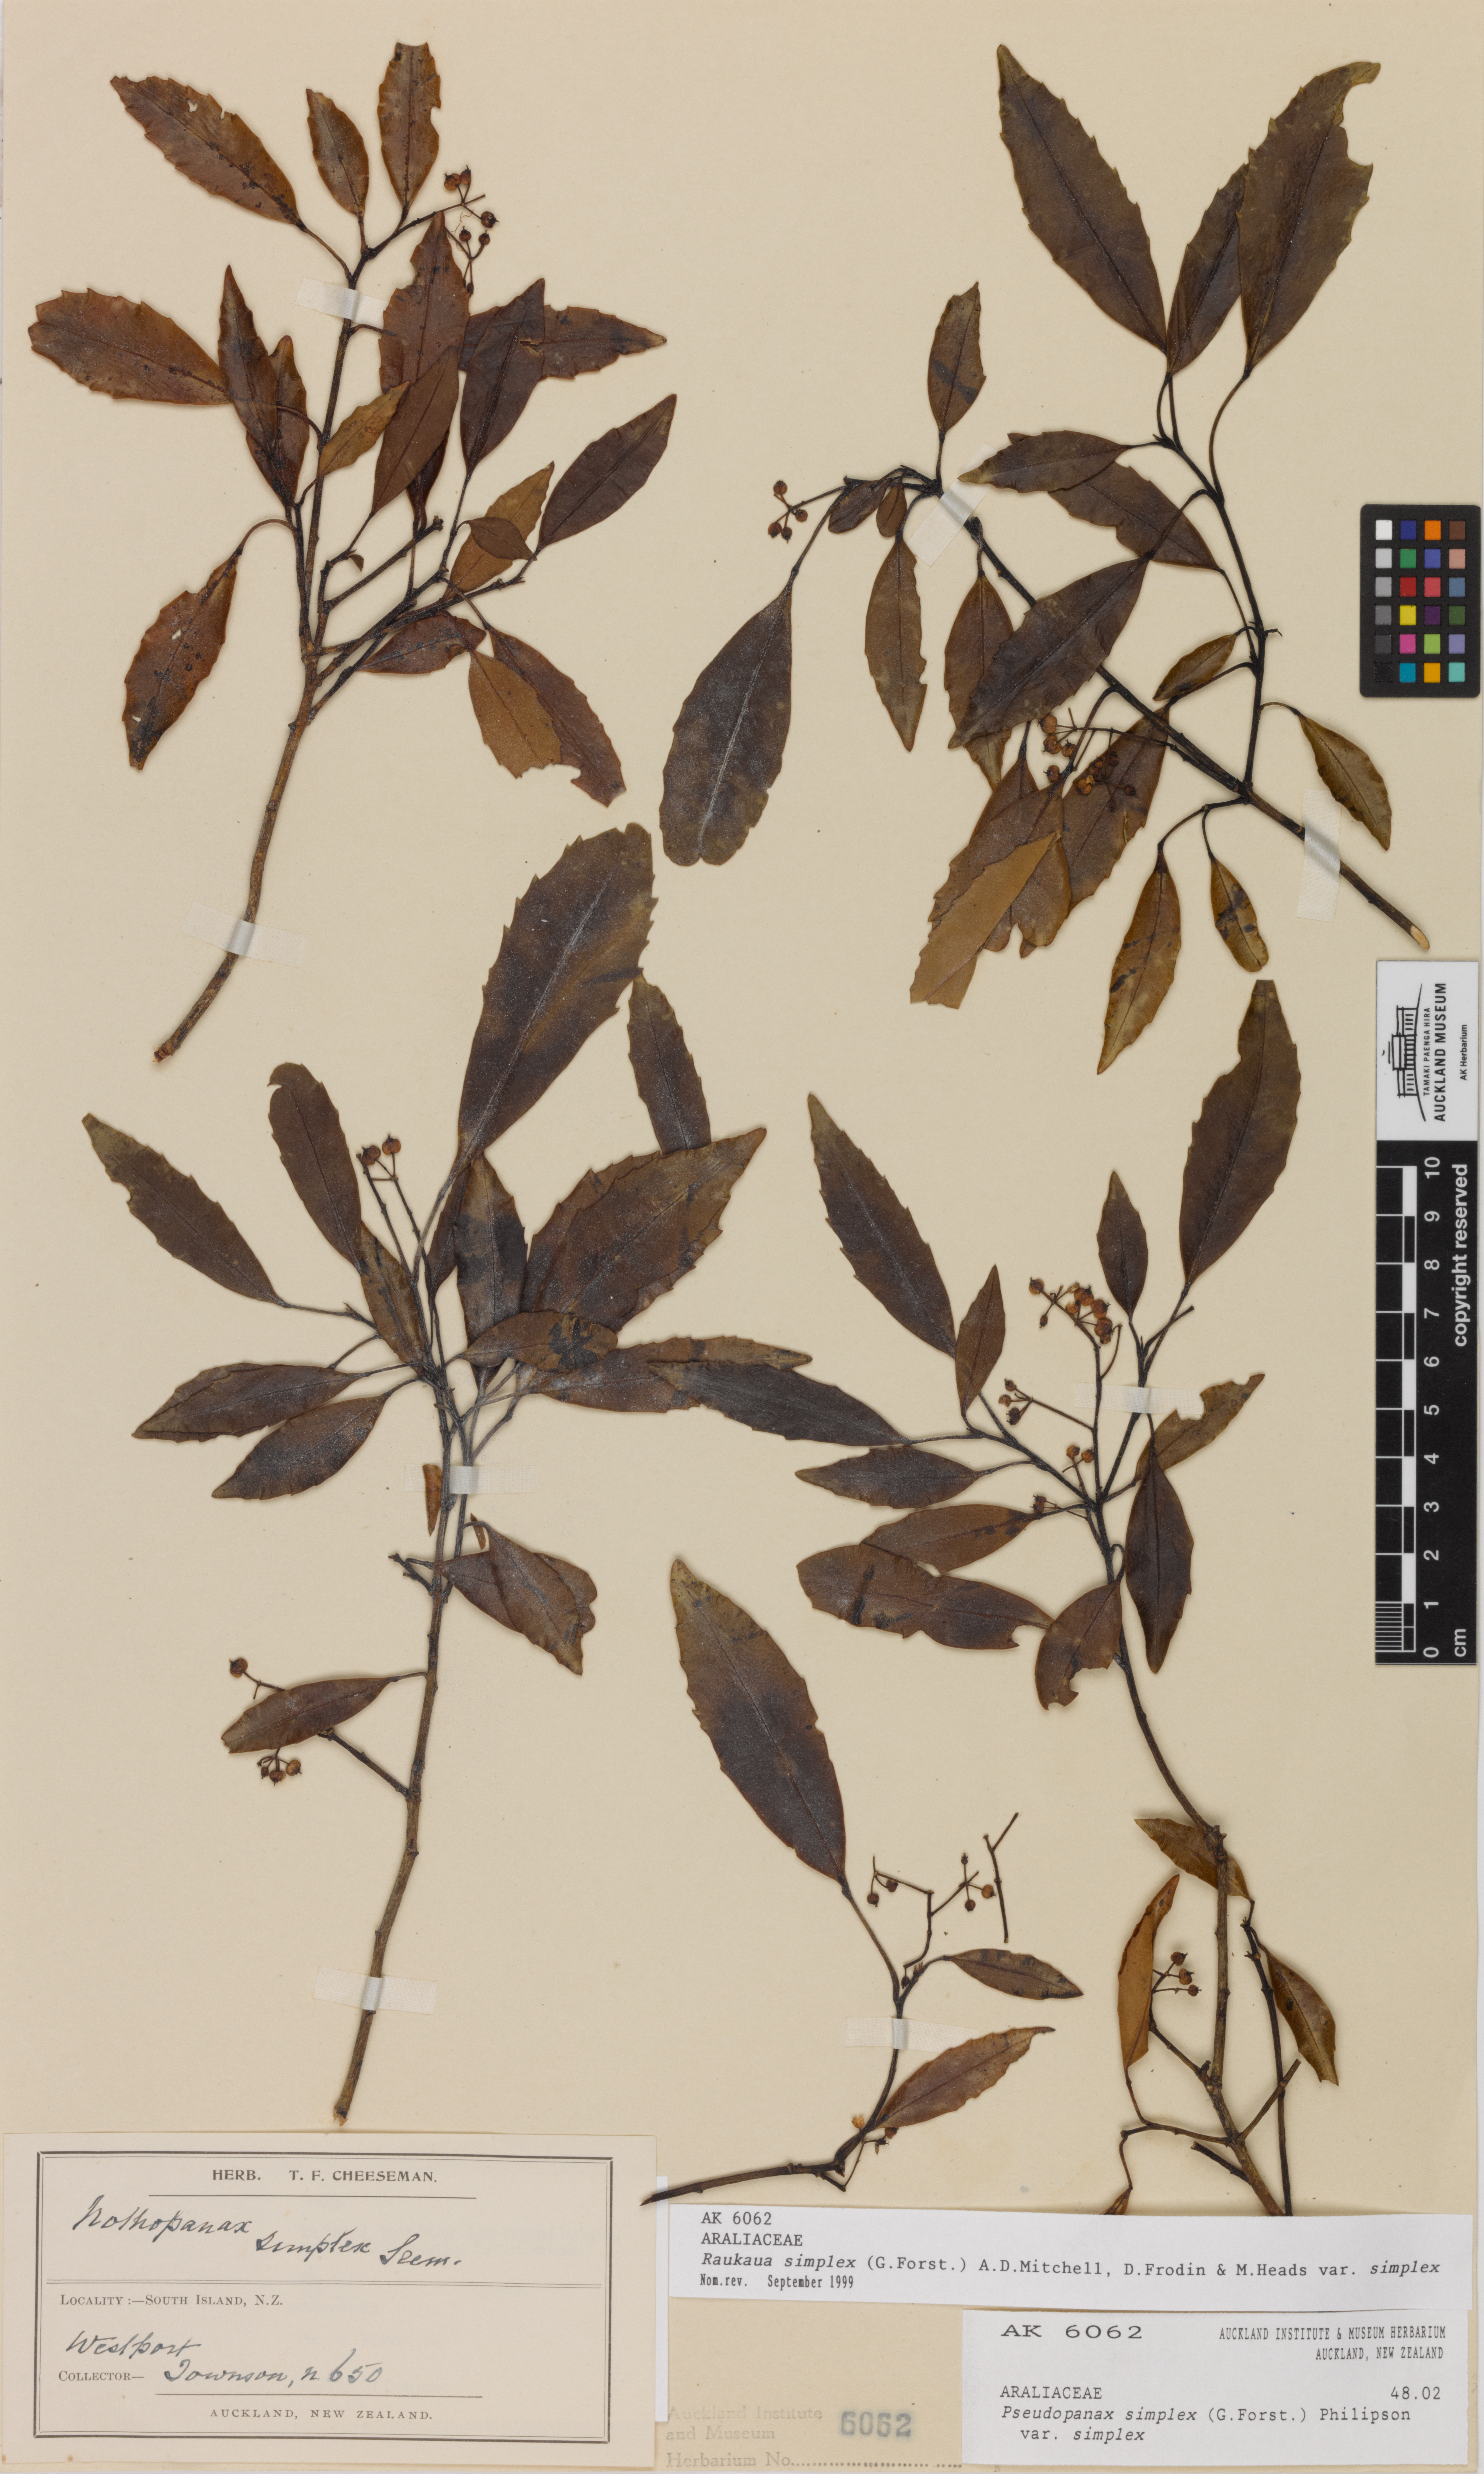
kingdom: Plantae
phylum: Tracheophyta
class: Magnoliopsida
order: Apiales
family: Araliaceae
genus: Raukaua
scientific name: Raukaua simplex
